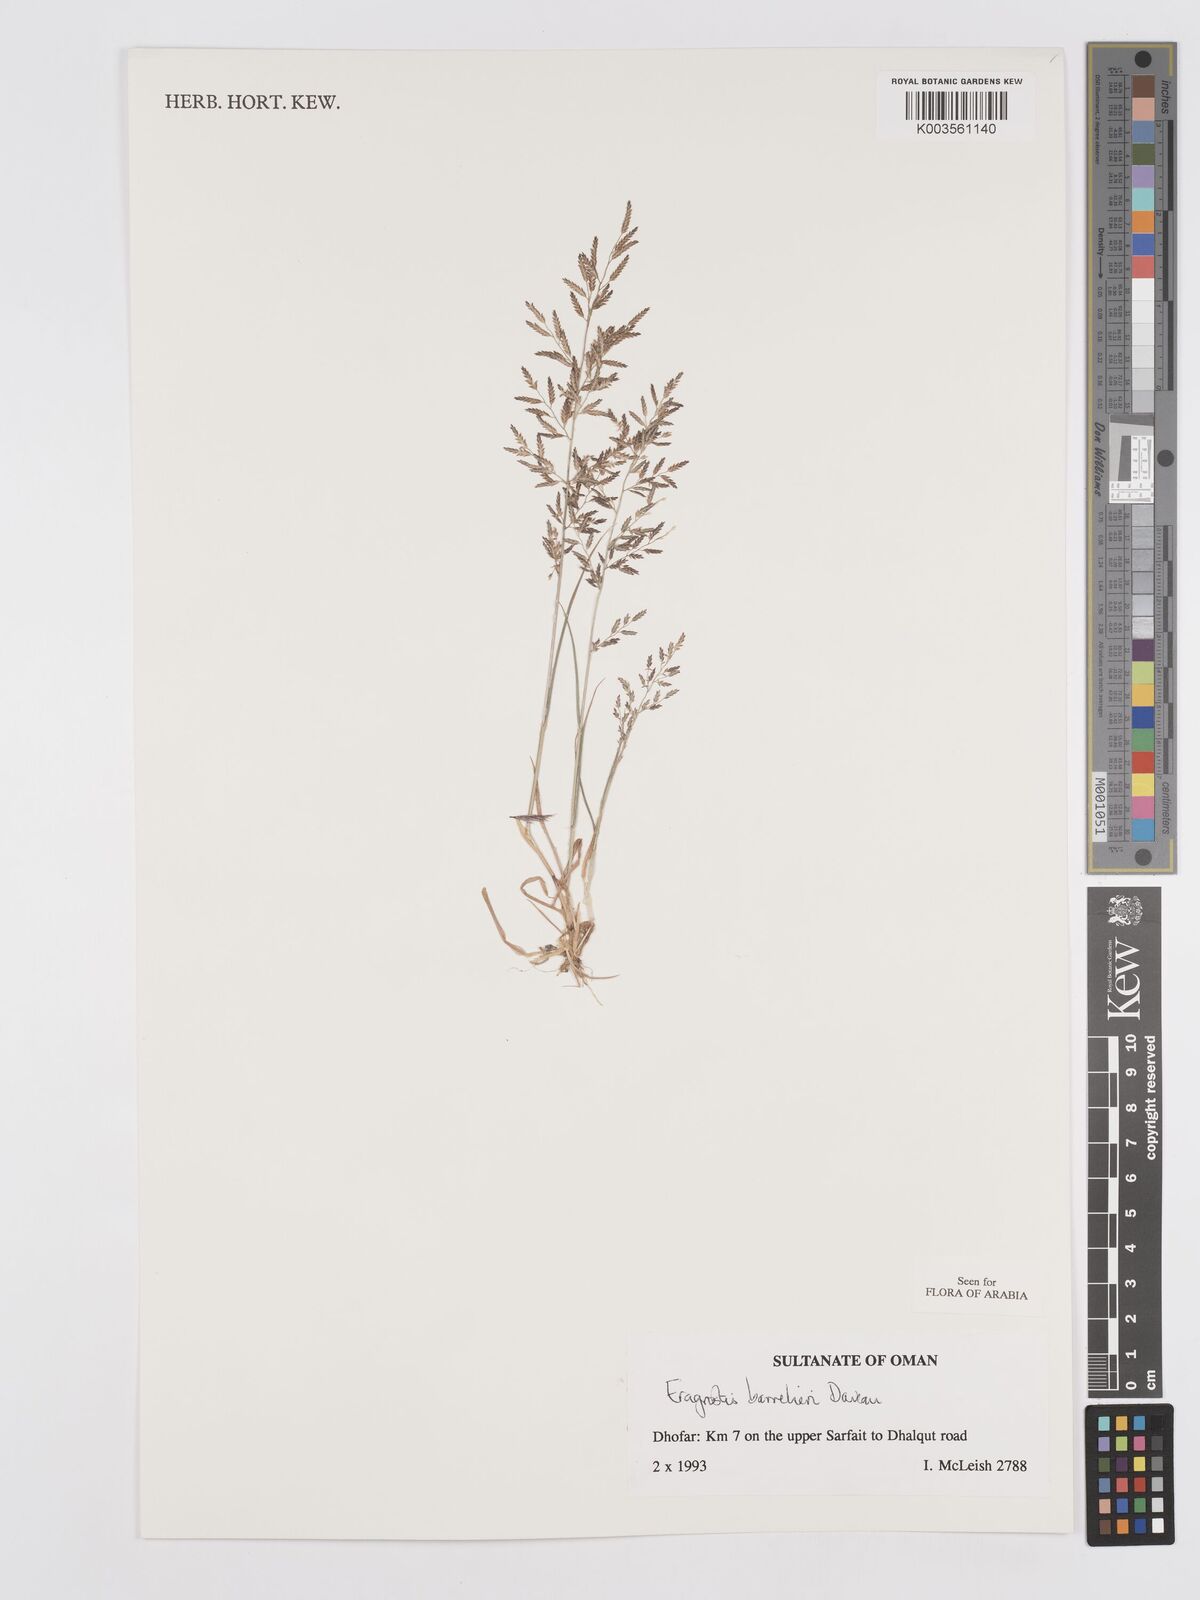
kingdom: Plantae
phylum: Tracheophyta
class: Liliopsida
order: Poales
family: Poaceae
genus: Eragrostis
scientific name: Eragrostis barrelieri
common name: Mediterranean lovegrass
